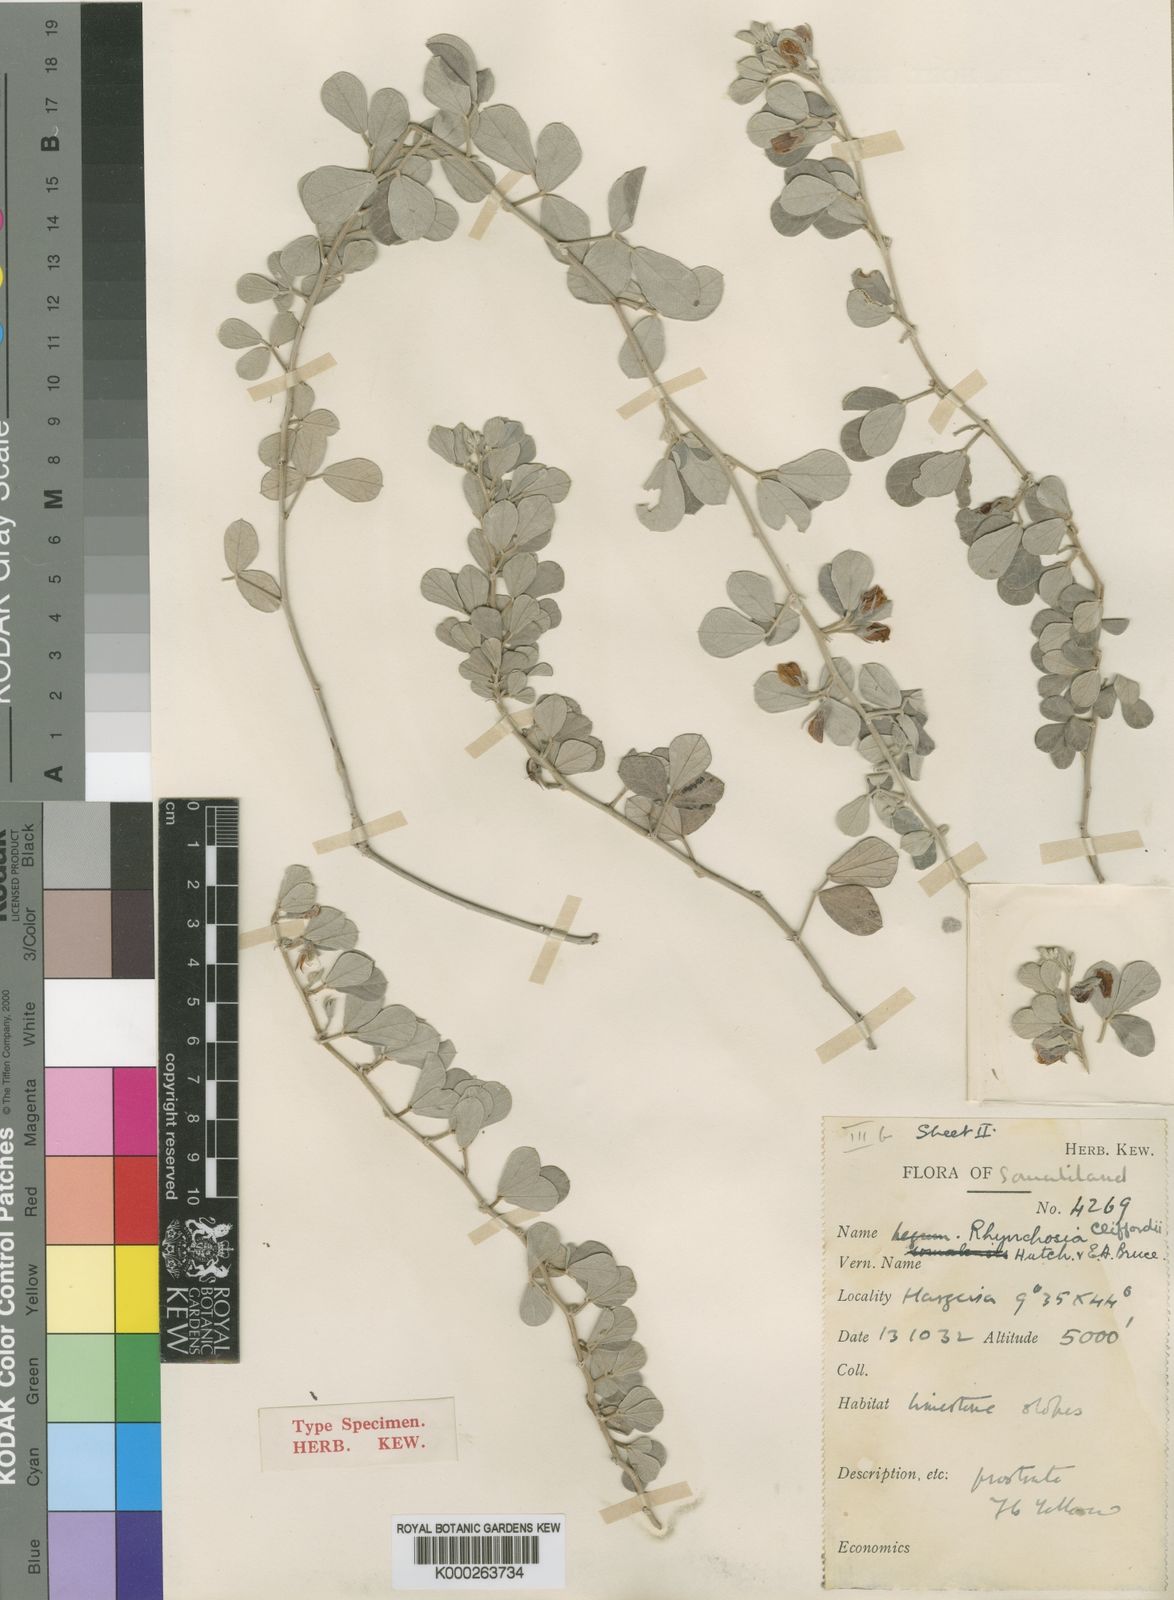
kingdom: Plantae
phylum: Tracheophyta
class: Magnoliopsida
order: Fabales
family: Fabaceae
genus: Rhynchosia
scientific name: Rhynchosia schimperi
